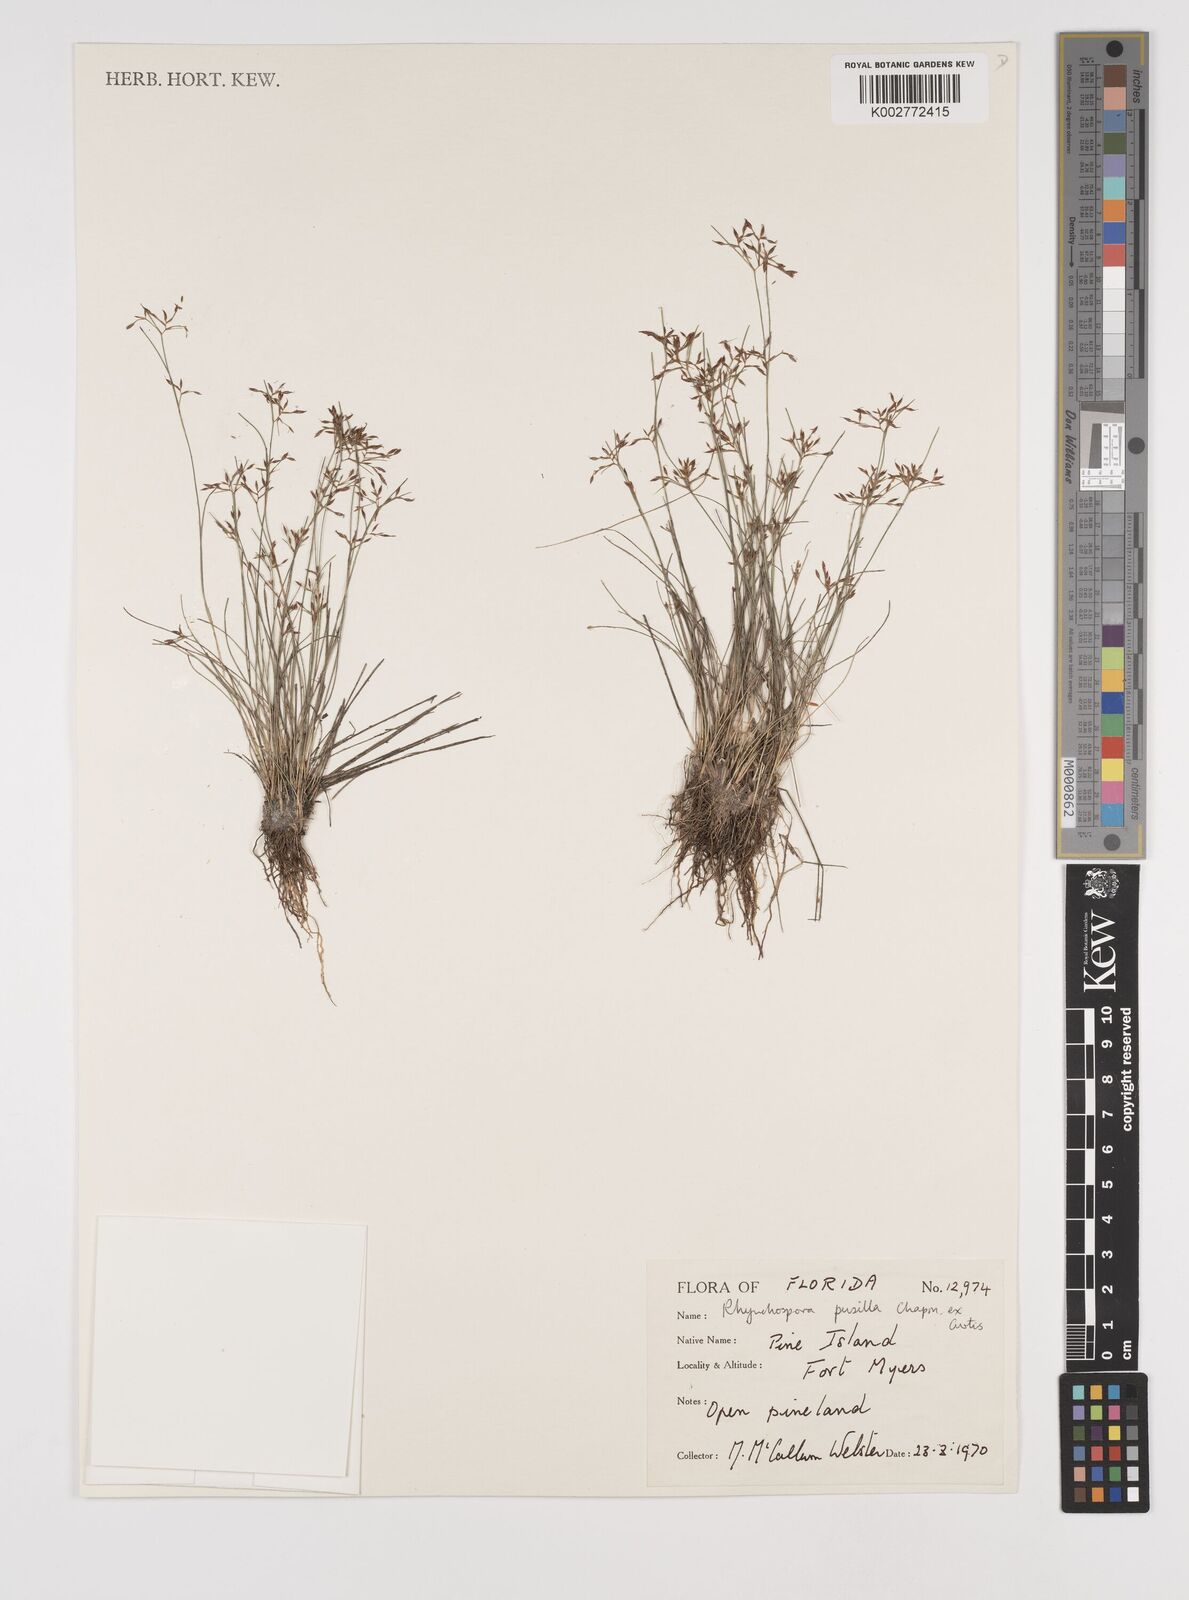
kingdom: Plantae
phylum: Tracheophyta
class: Liliopsida
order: Poales
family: Cyperaceae
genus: Rhynchospora
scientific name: Rhynchospora intermixta
